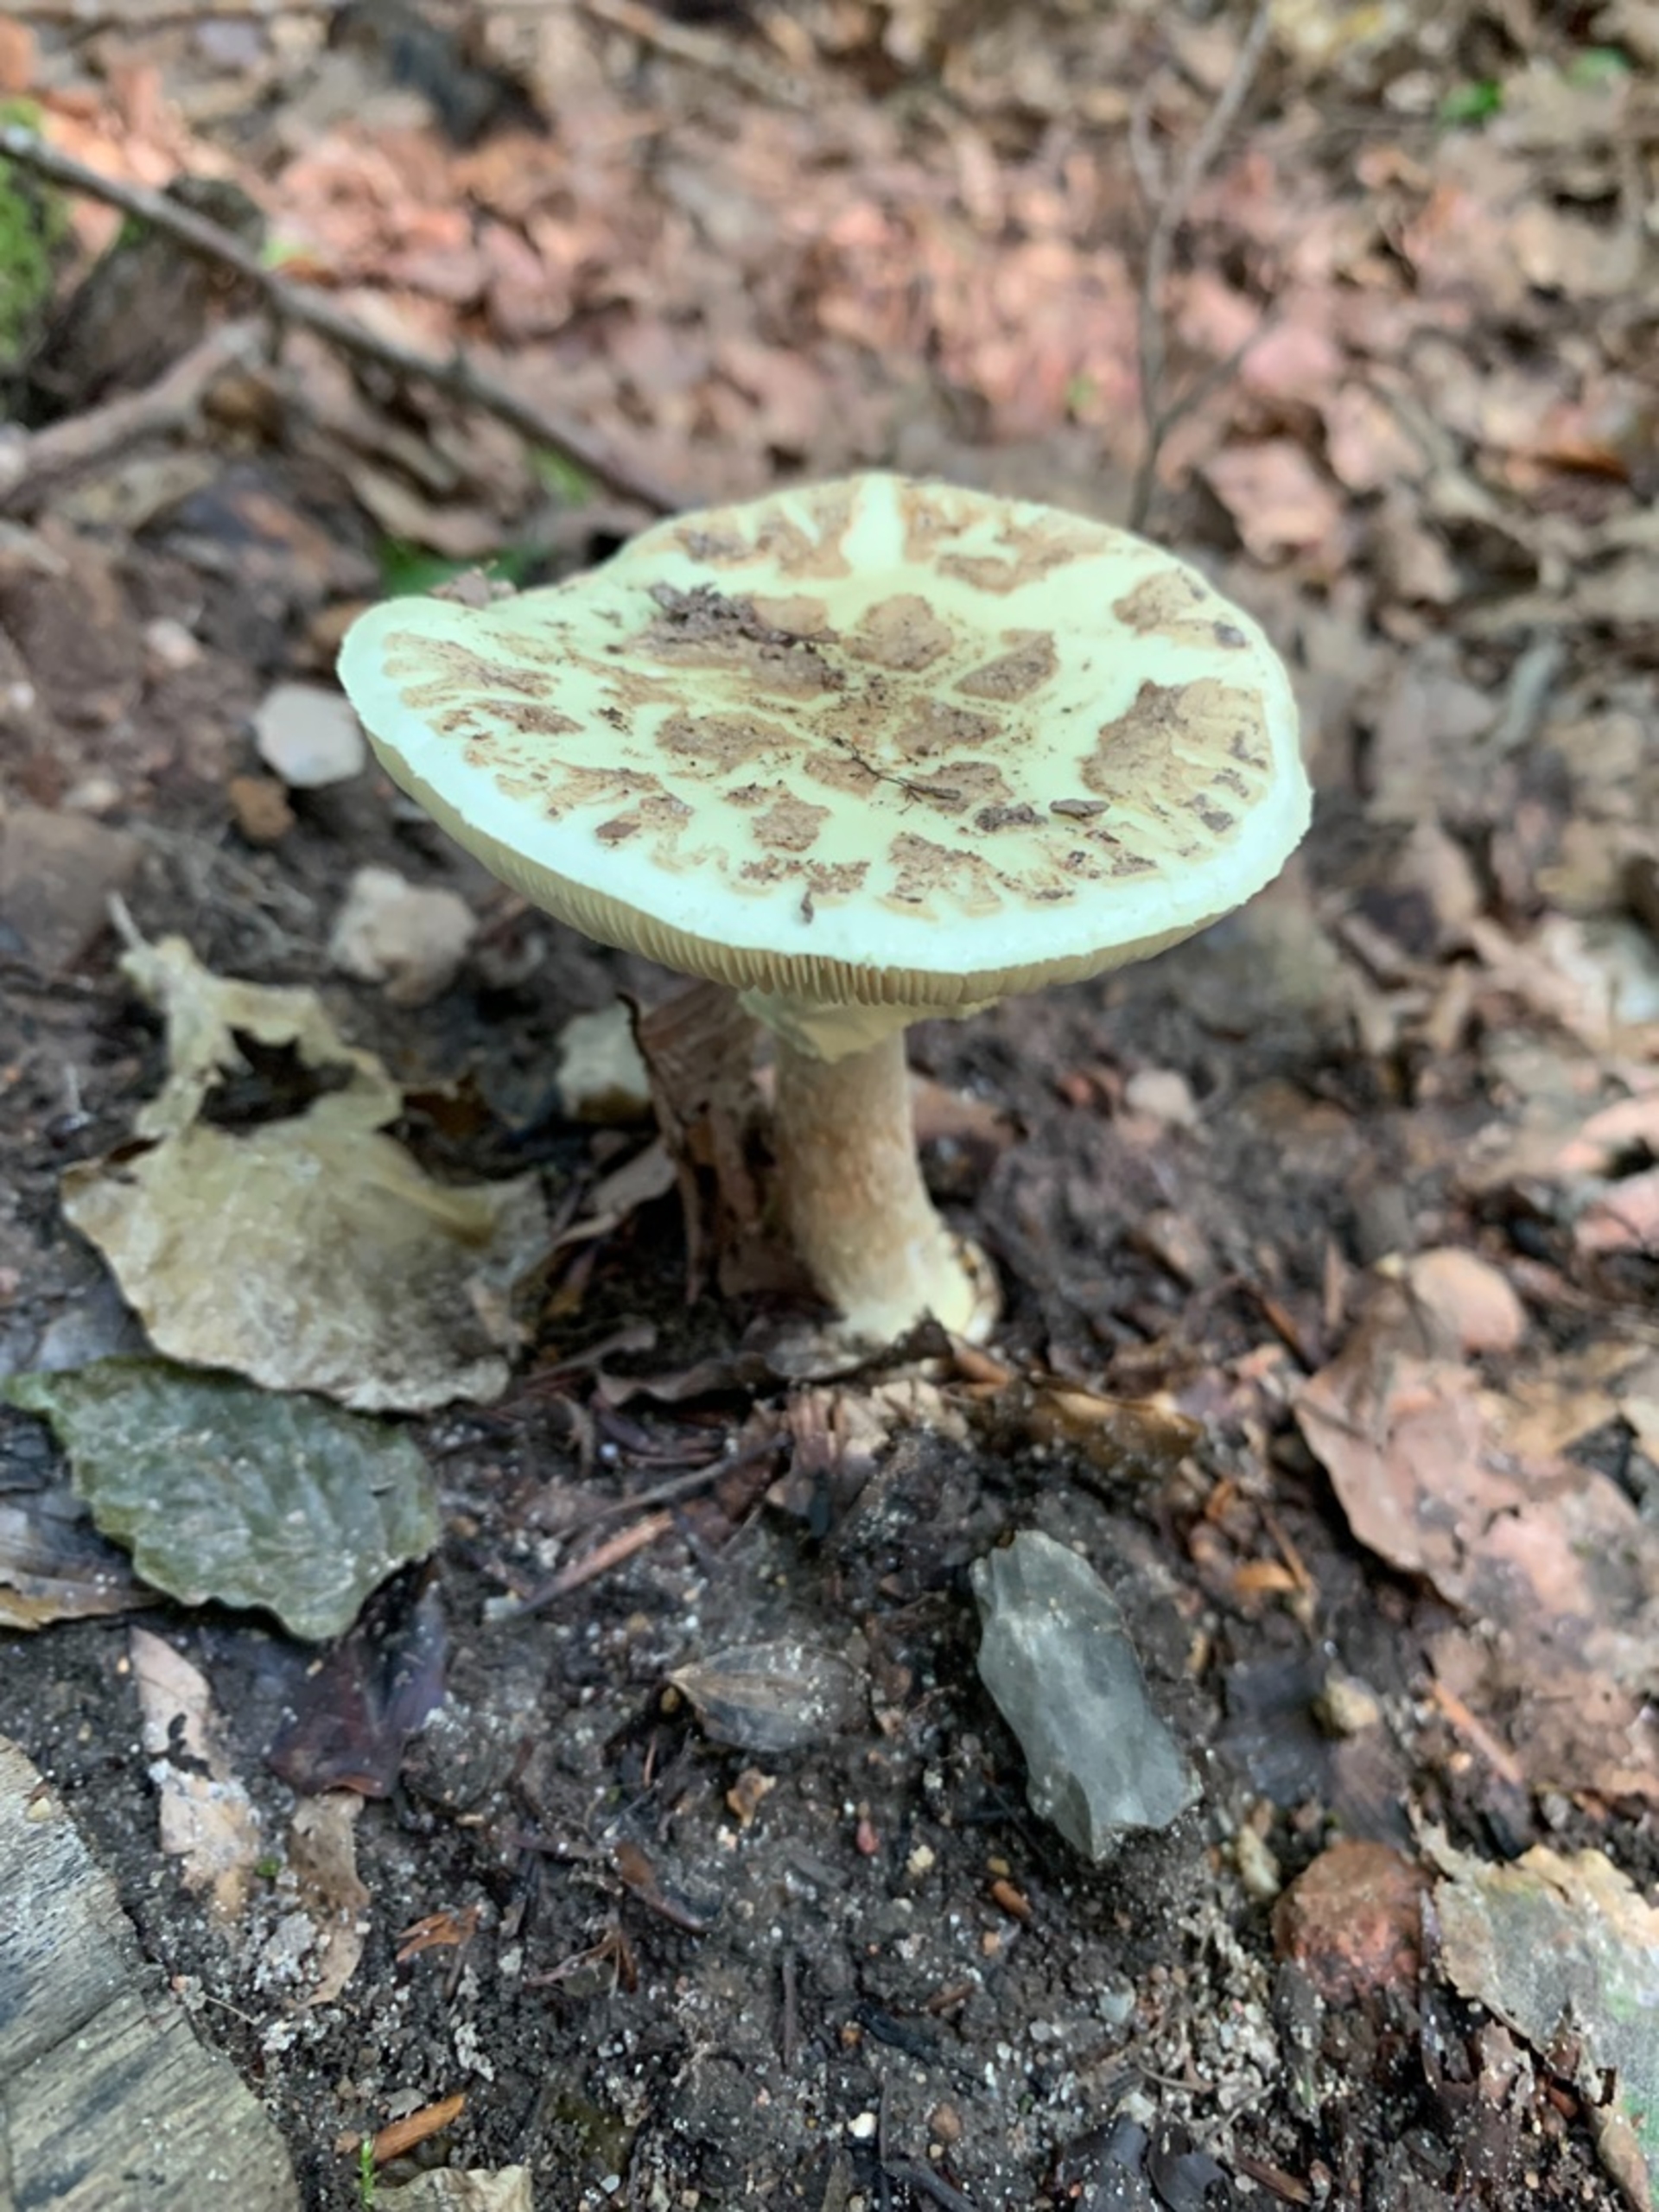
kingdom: Fungi
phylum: Basidiomycota
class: Agaricomycetes
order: Agaricales
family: Amanitaceae
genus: Amanita
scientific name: Amanita citrina
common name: Kugleknoldet fluesvamp
